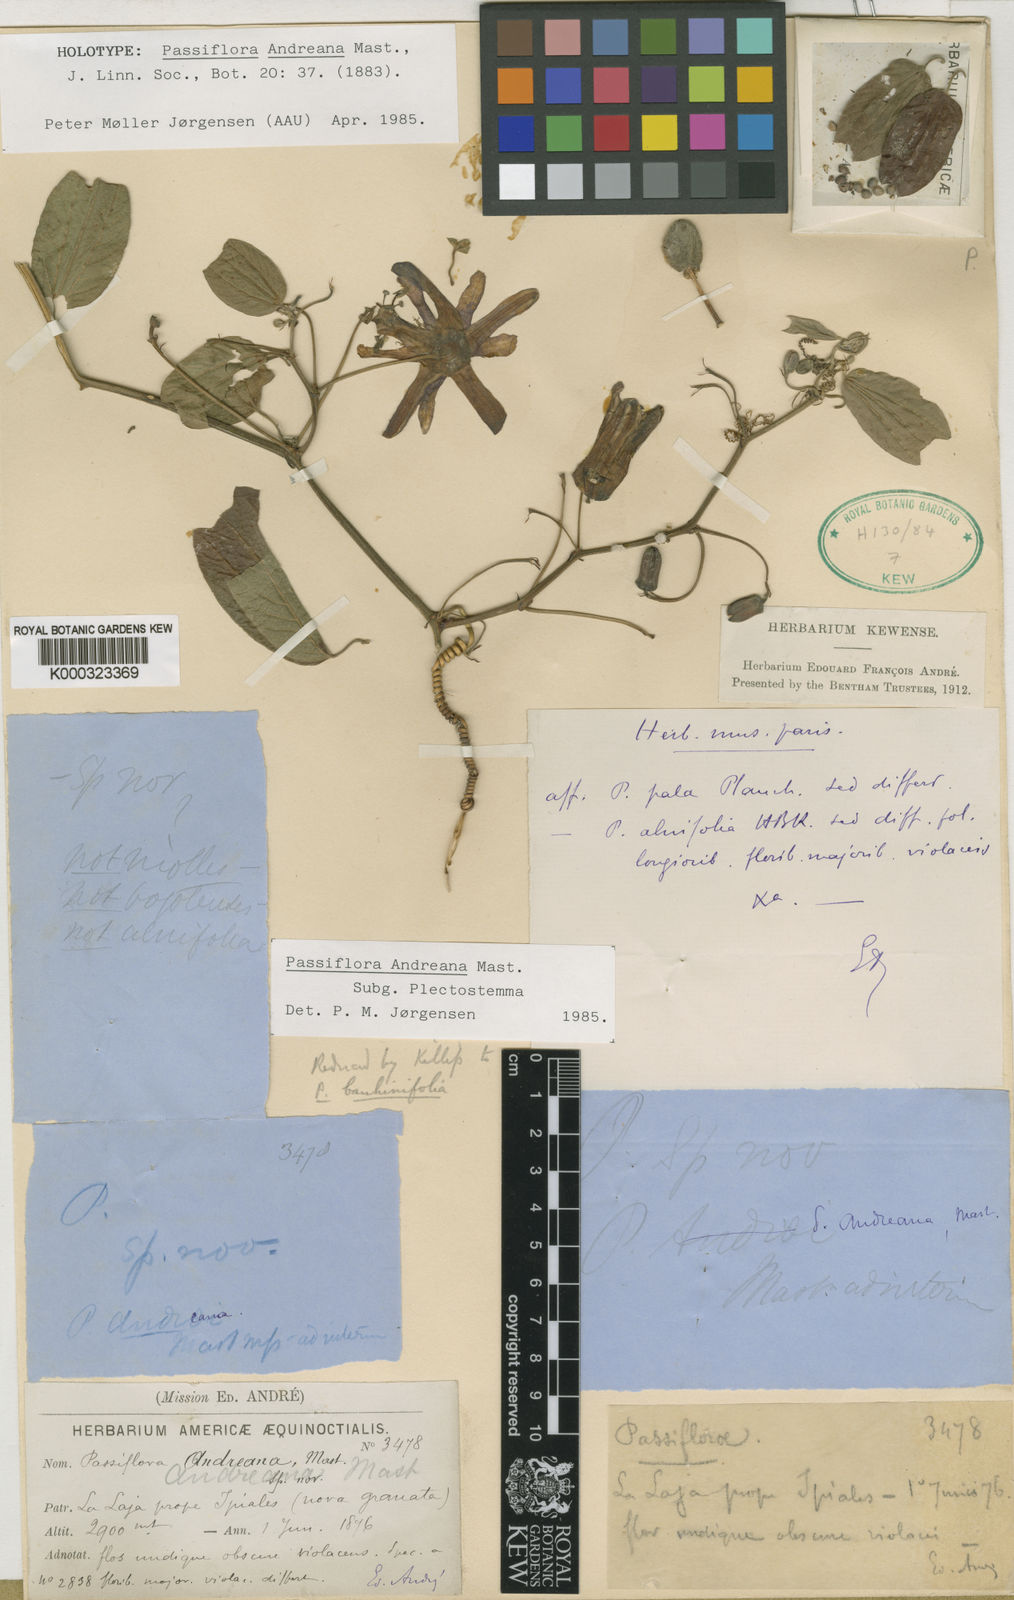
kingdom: Plantae
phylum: Tracheophyta
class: Magnoliopsida
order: Malpighiales
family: Passifloraceae
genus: Passiflora
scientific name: Passiflora
